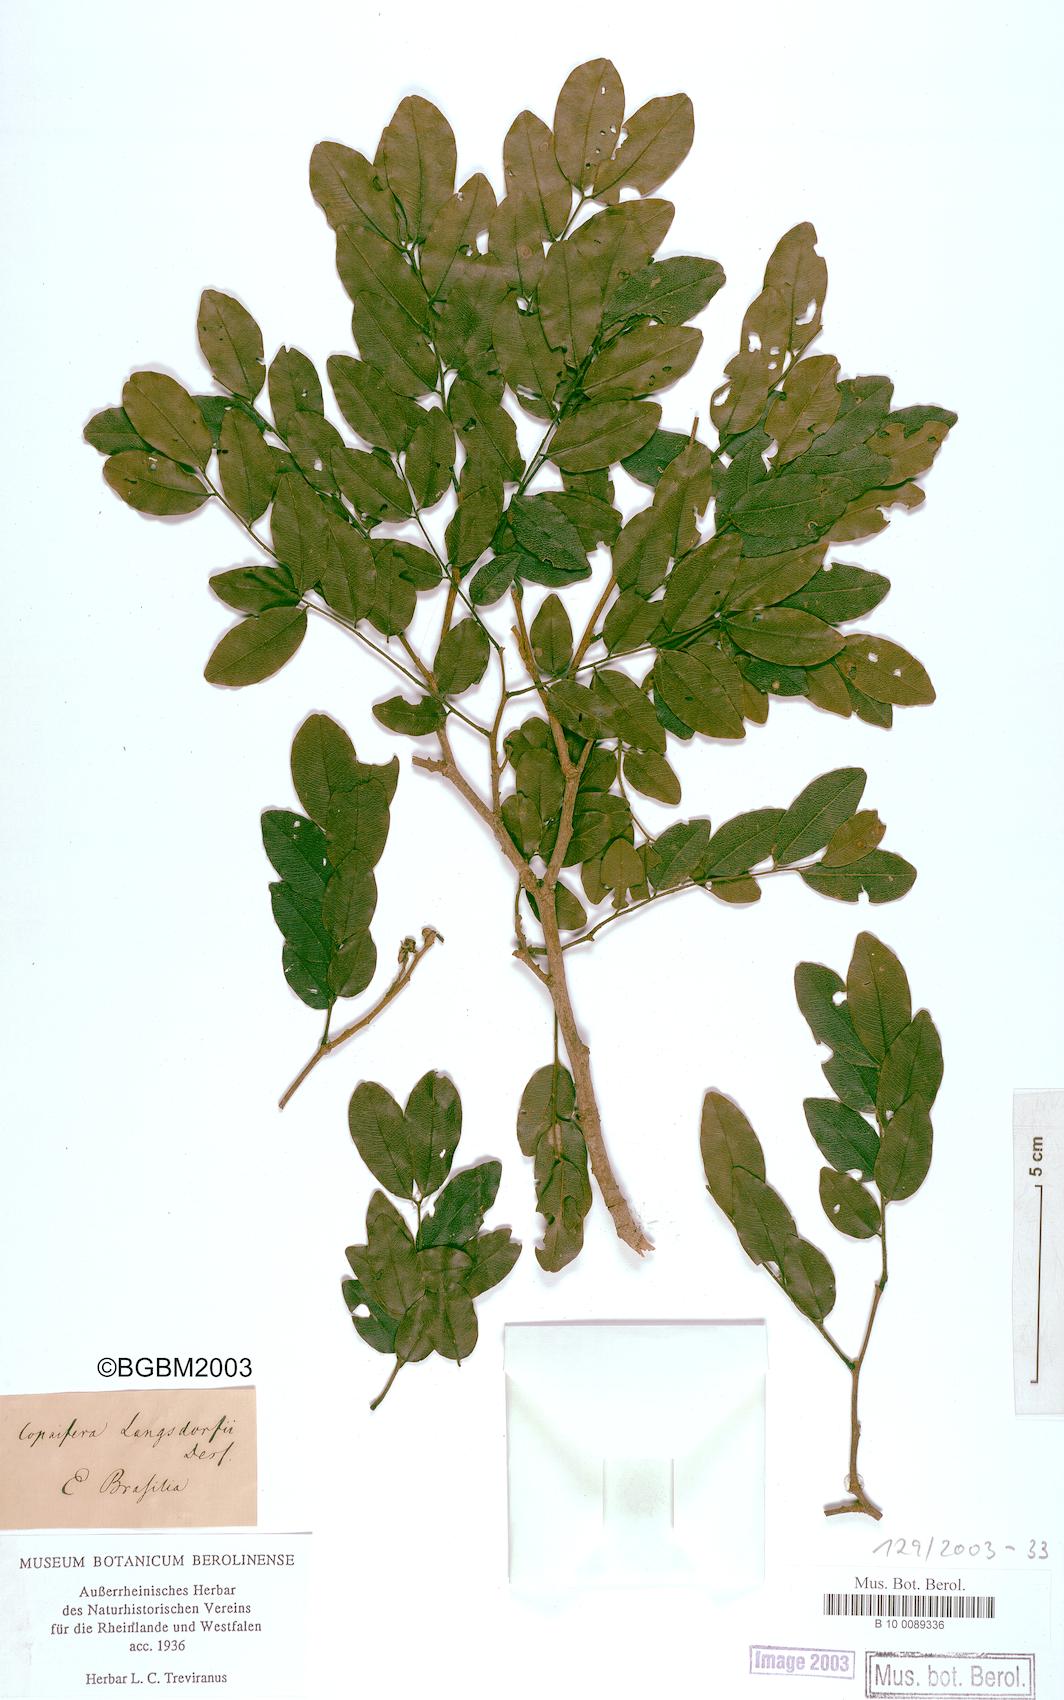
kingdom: Plantae
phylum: Tracheophyta
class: Magnoliopsida
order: Fabales
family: Fabaceae
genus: Copaifera
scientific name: Copaifera langsdorffii
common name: Brazilian diesel tree
